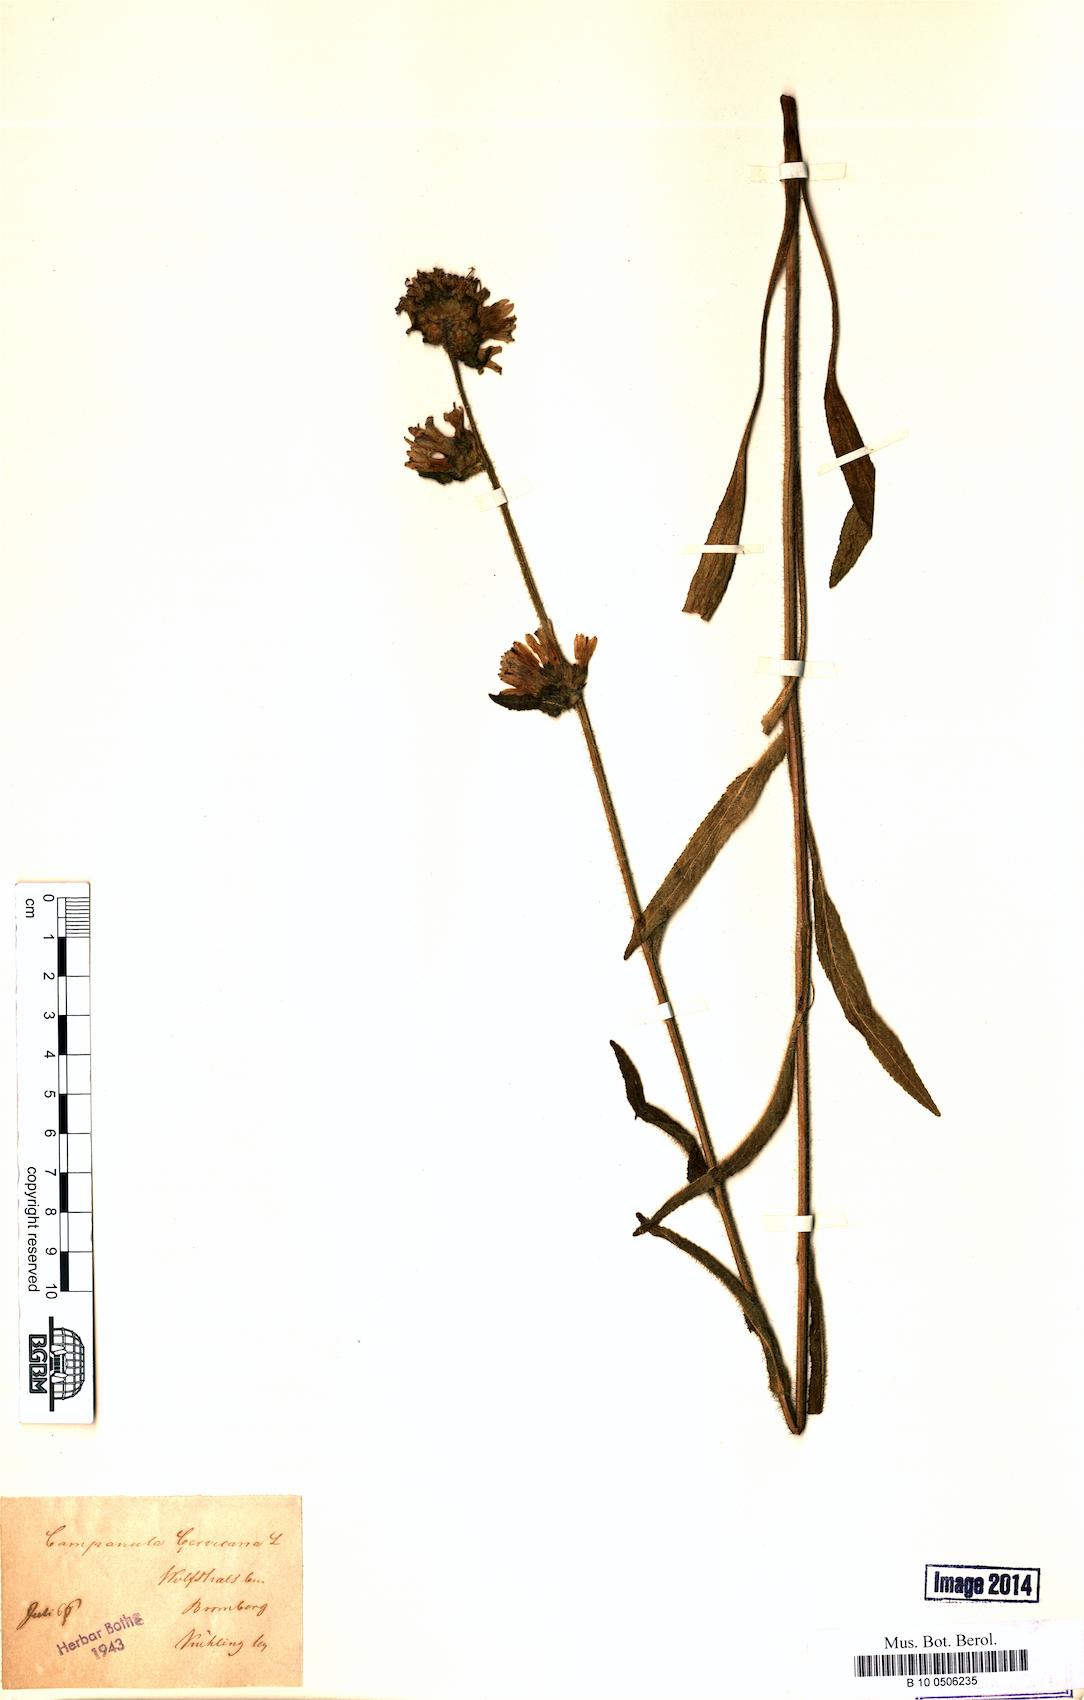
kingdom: Plantae
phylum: Tracheophyta
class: Magnoliopsida
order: Asterales
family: Campanulaceae
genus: Campanula
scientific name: Campanula cervicaria
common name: Bristly bellflower
